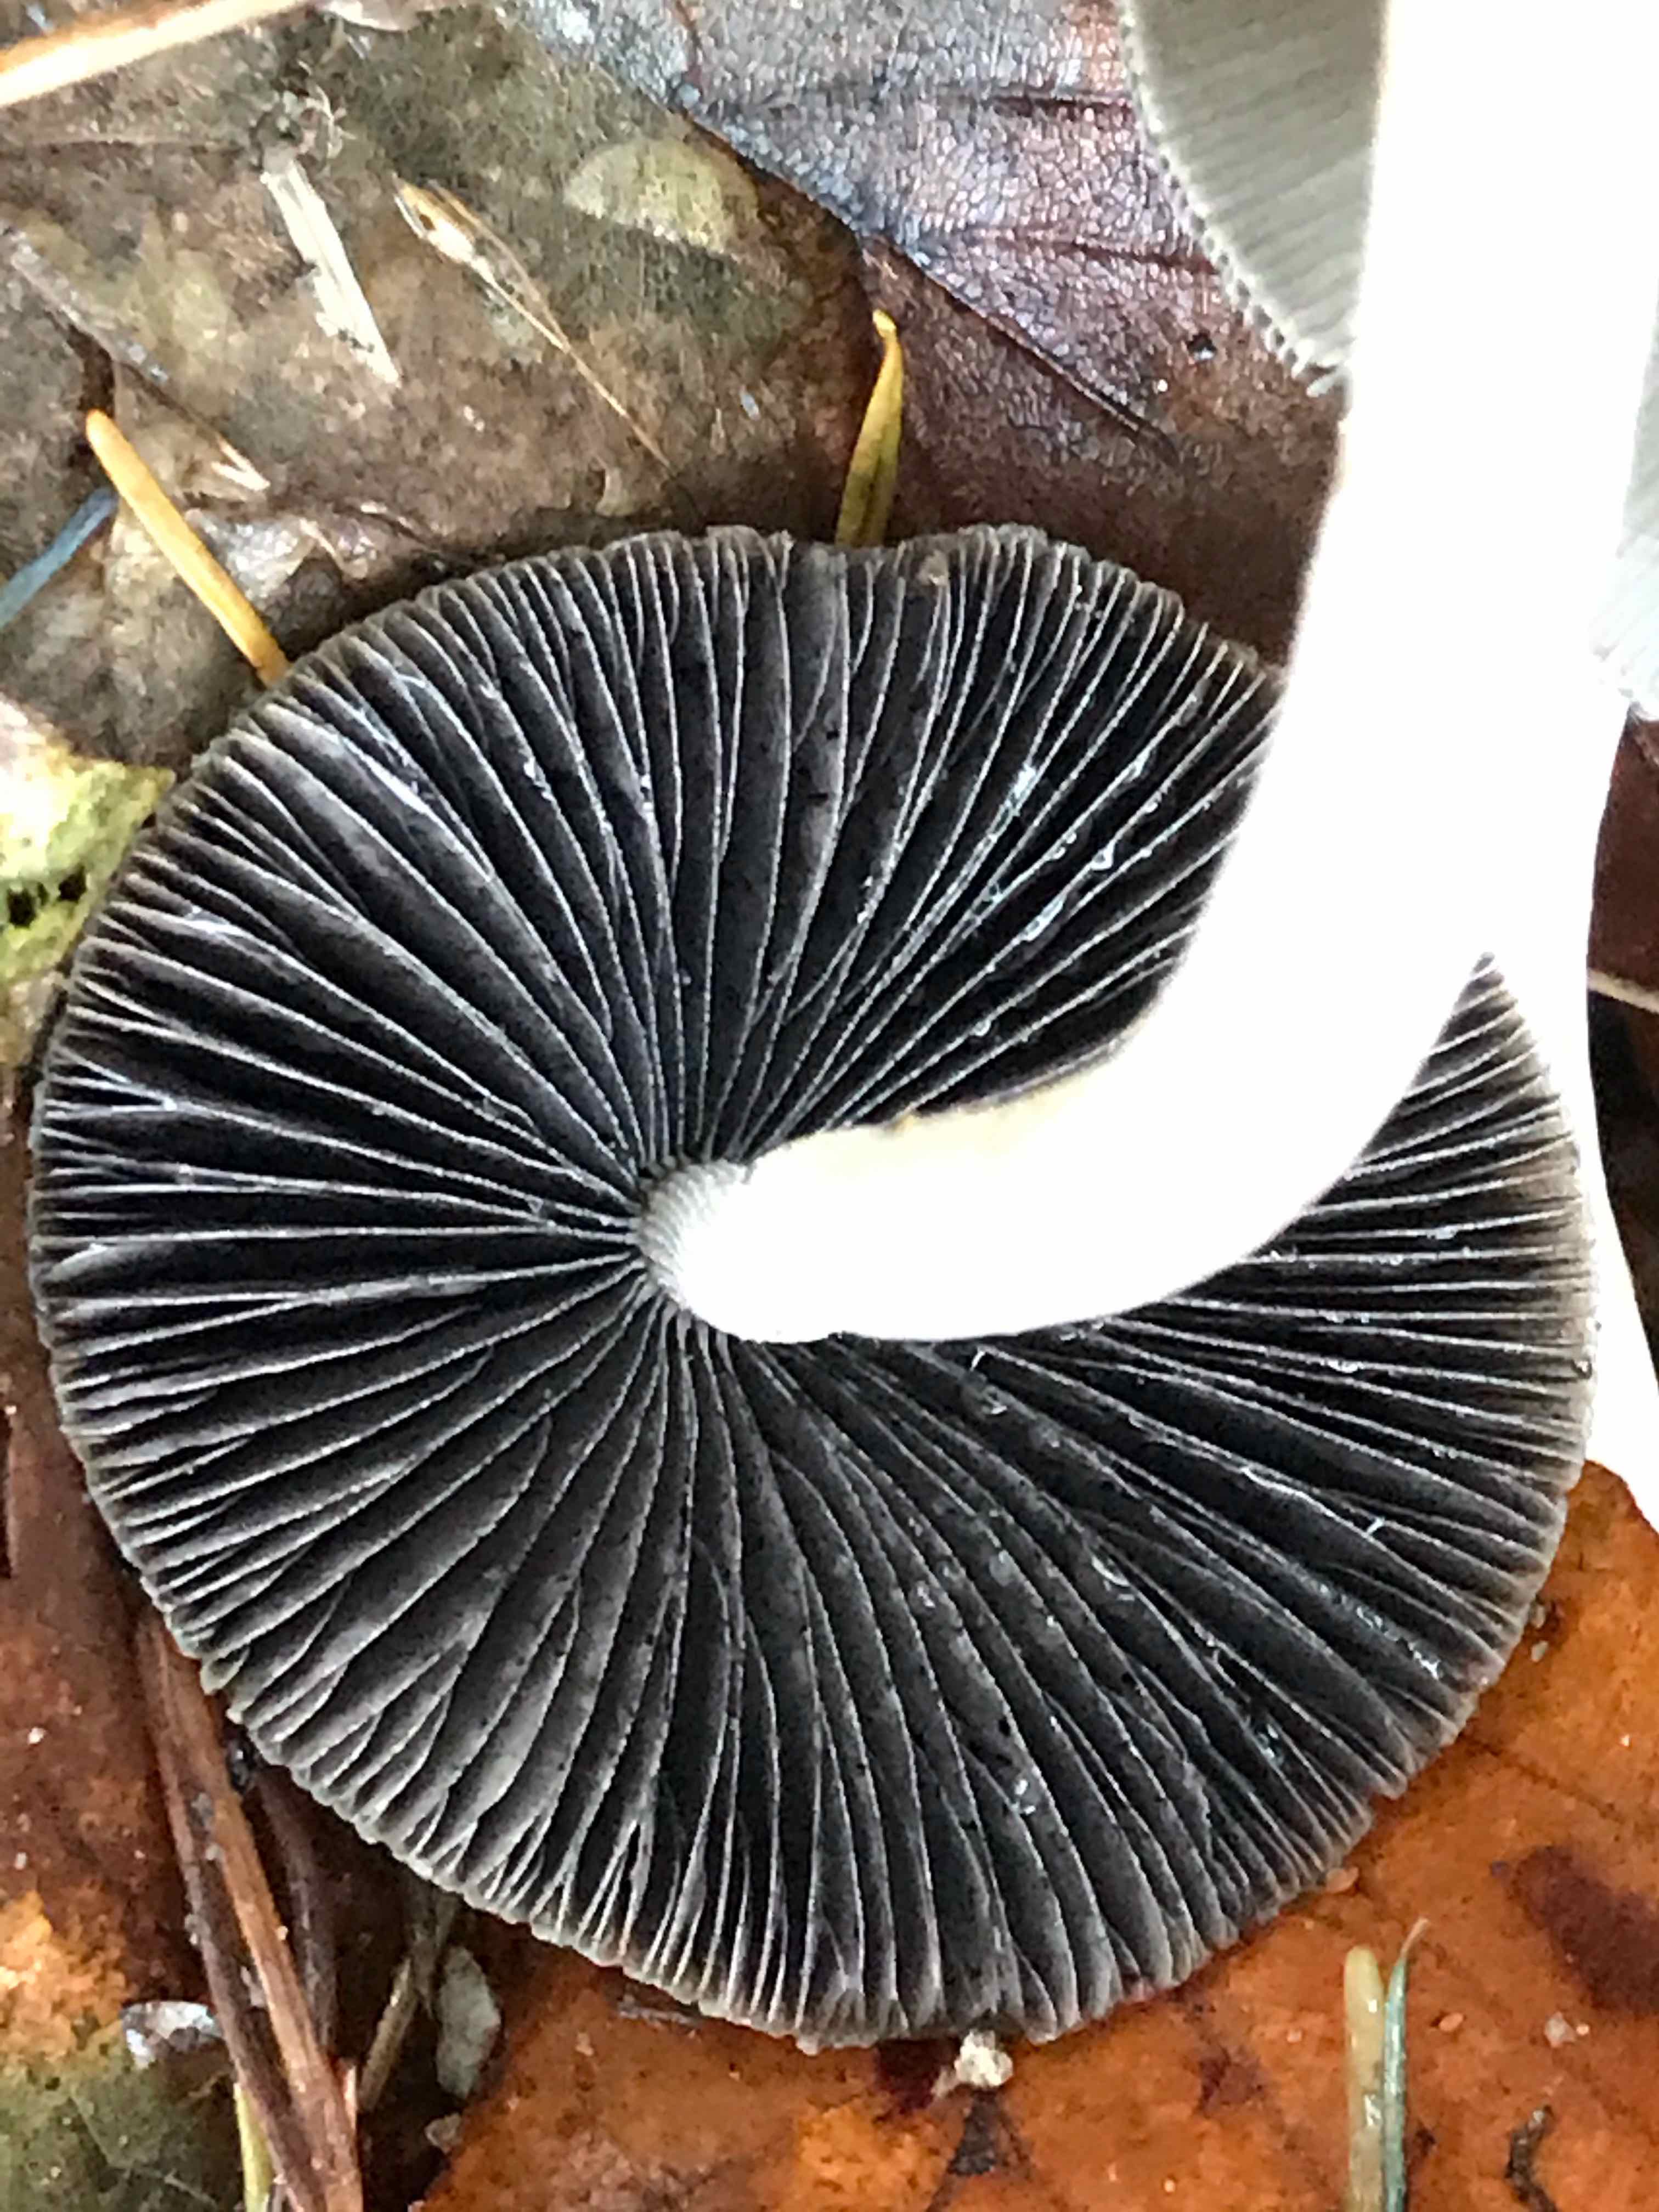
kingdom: Fungi
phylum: Basidiomycota
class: Agaricomycetes
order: Agaricales
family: Psathyrellaceae
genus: Psathyrella
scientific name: Psathyrella
